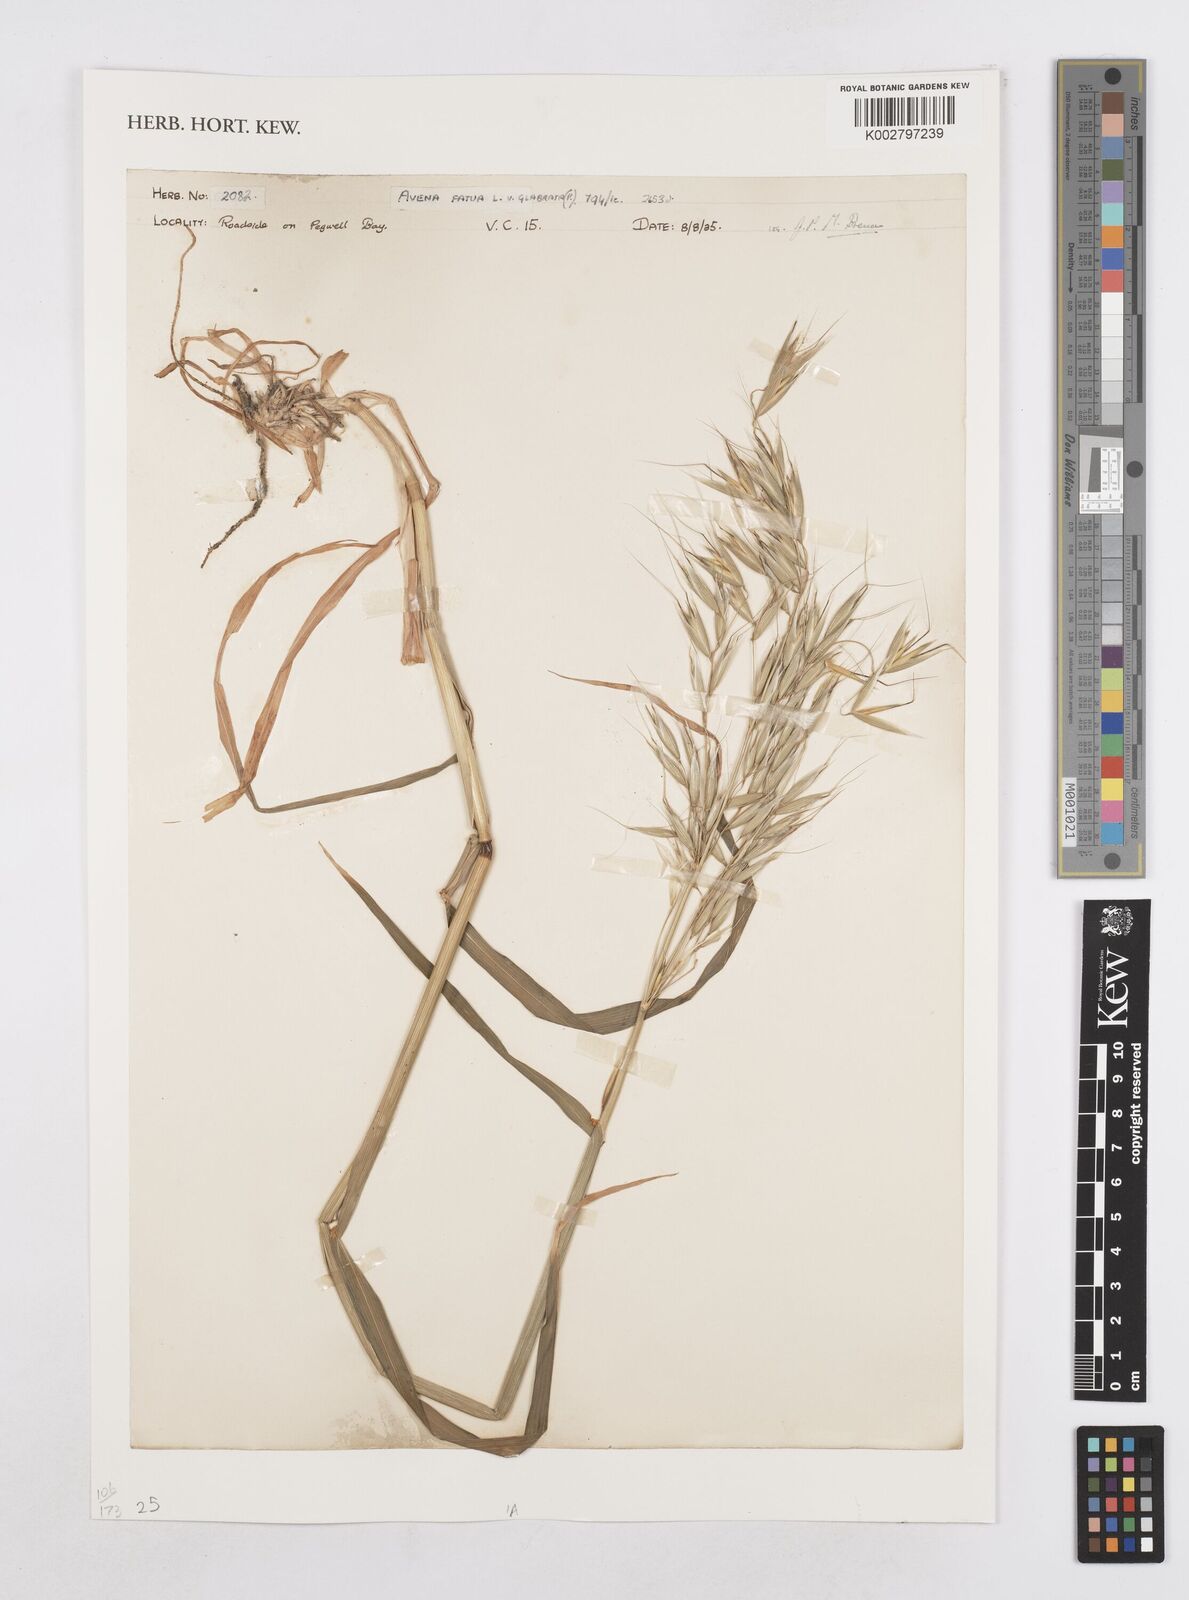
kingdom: Plantae
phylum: Tracheophyta
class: Liliopsida
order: Poales
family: Poaceae
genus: Avena
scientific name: Avena fatua
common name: Wild oat
